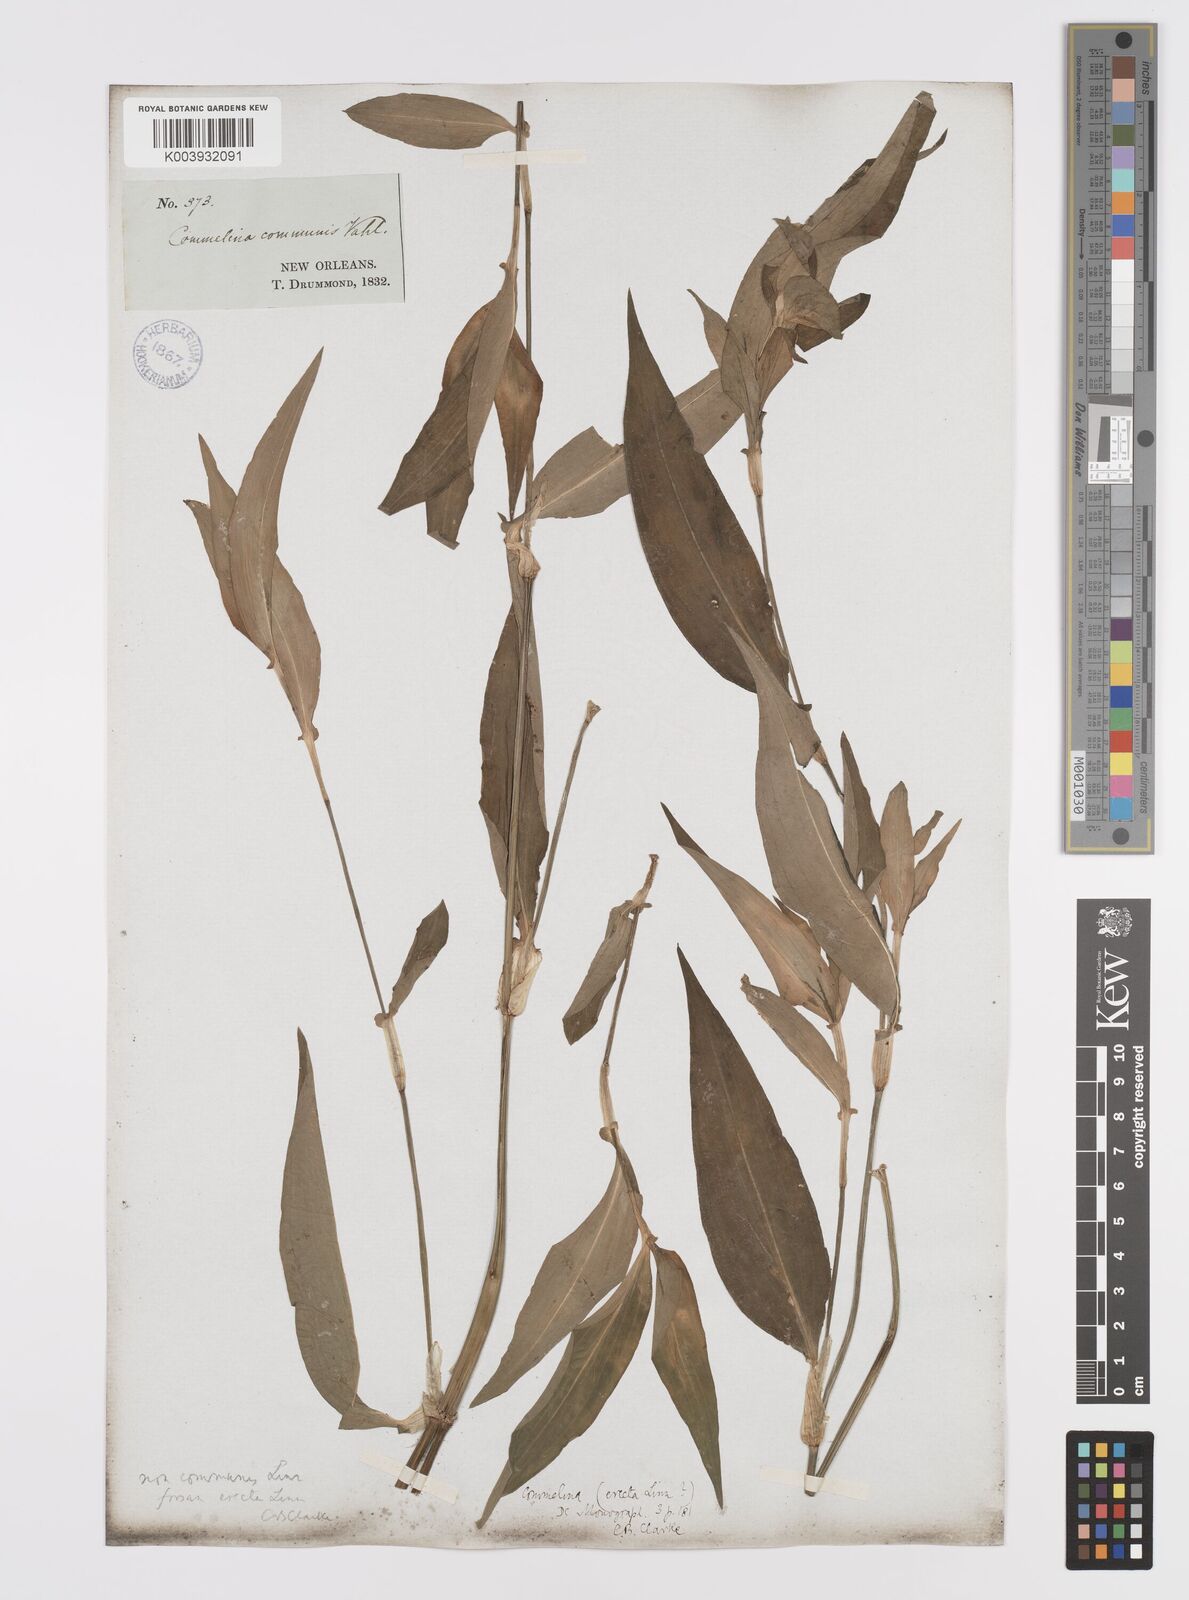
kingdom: Plantae
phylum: Tracheophyta
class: Liliopsida
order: Commelinales
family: Commelinaceae
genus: Commelina
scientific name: Commelina erecta
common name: Blousel blommetjie
